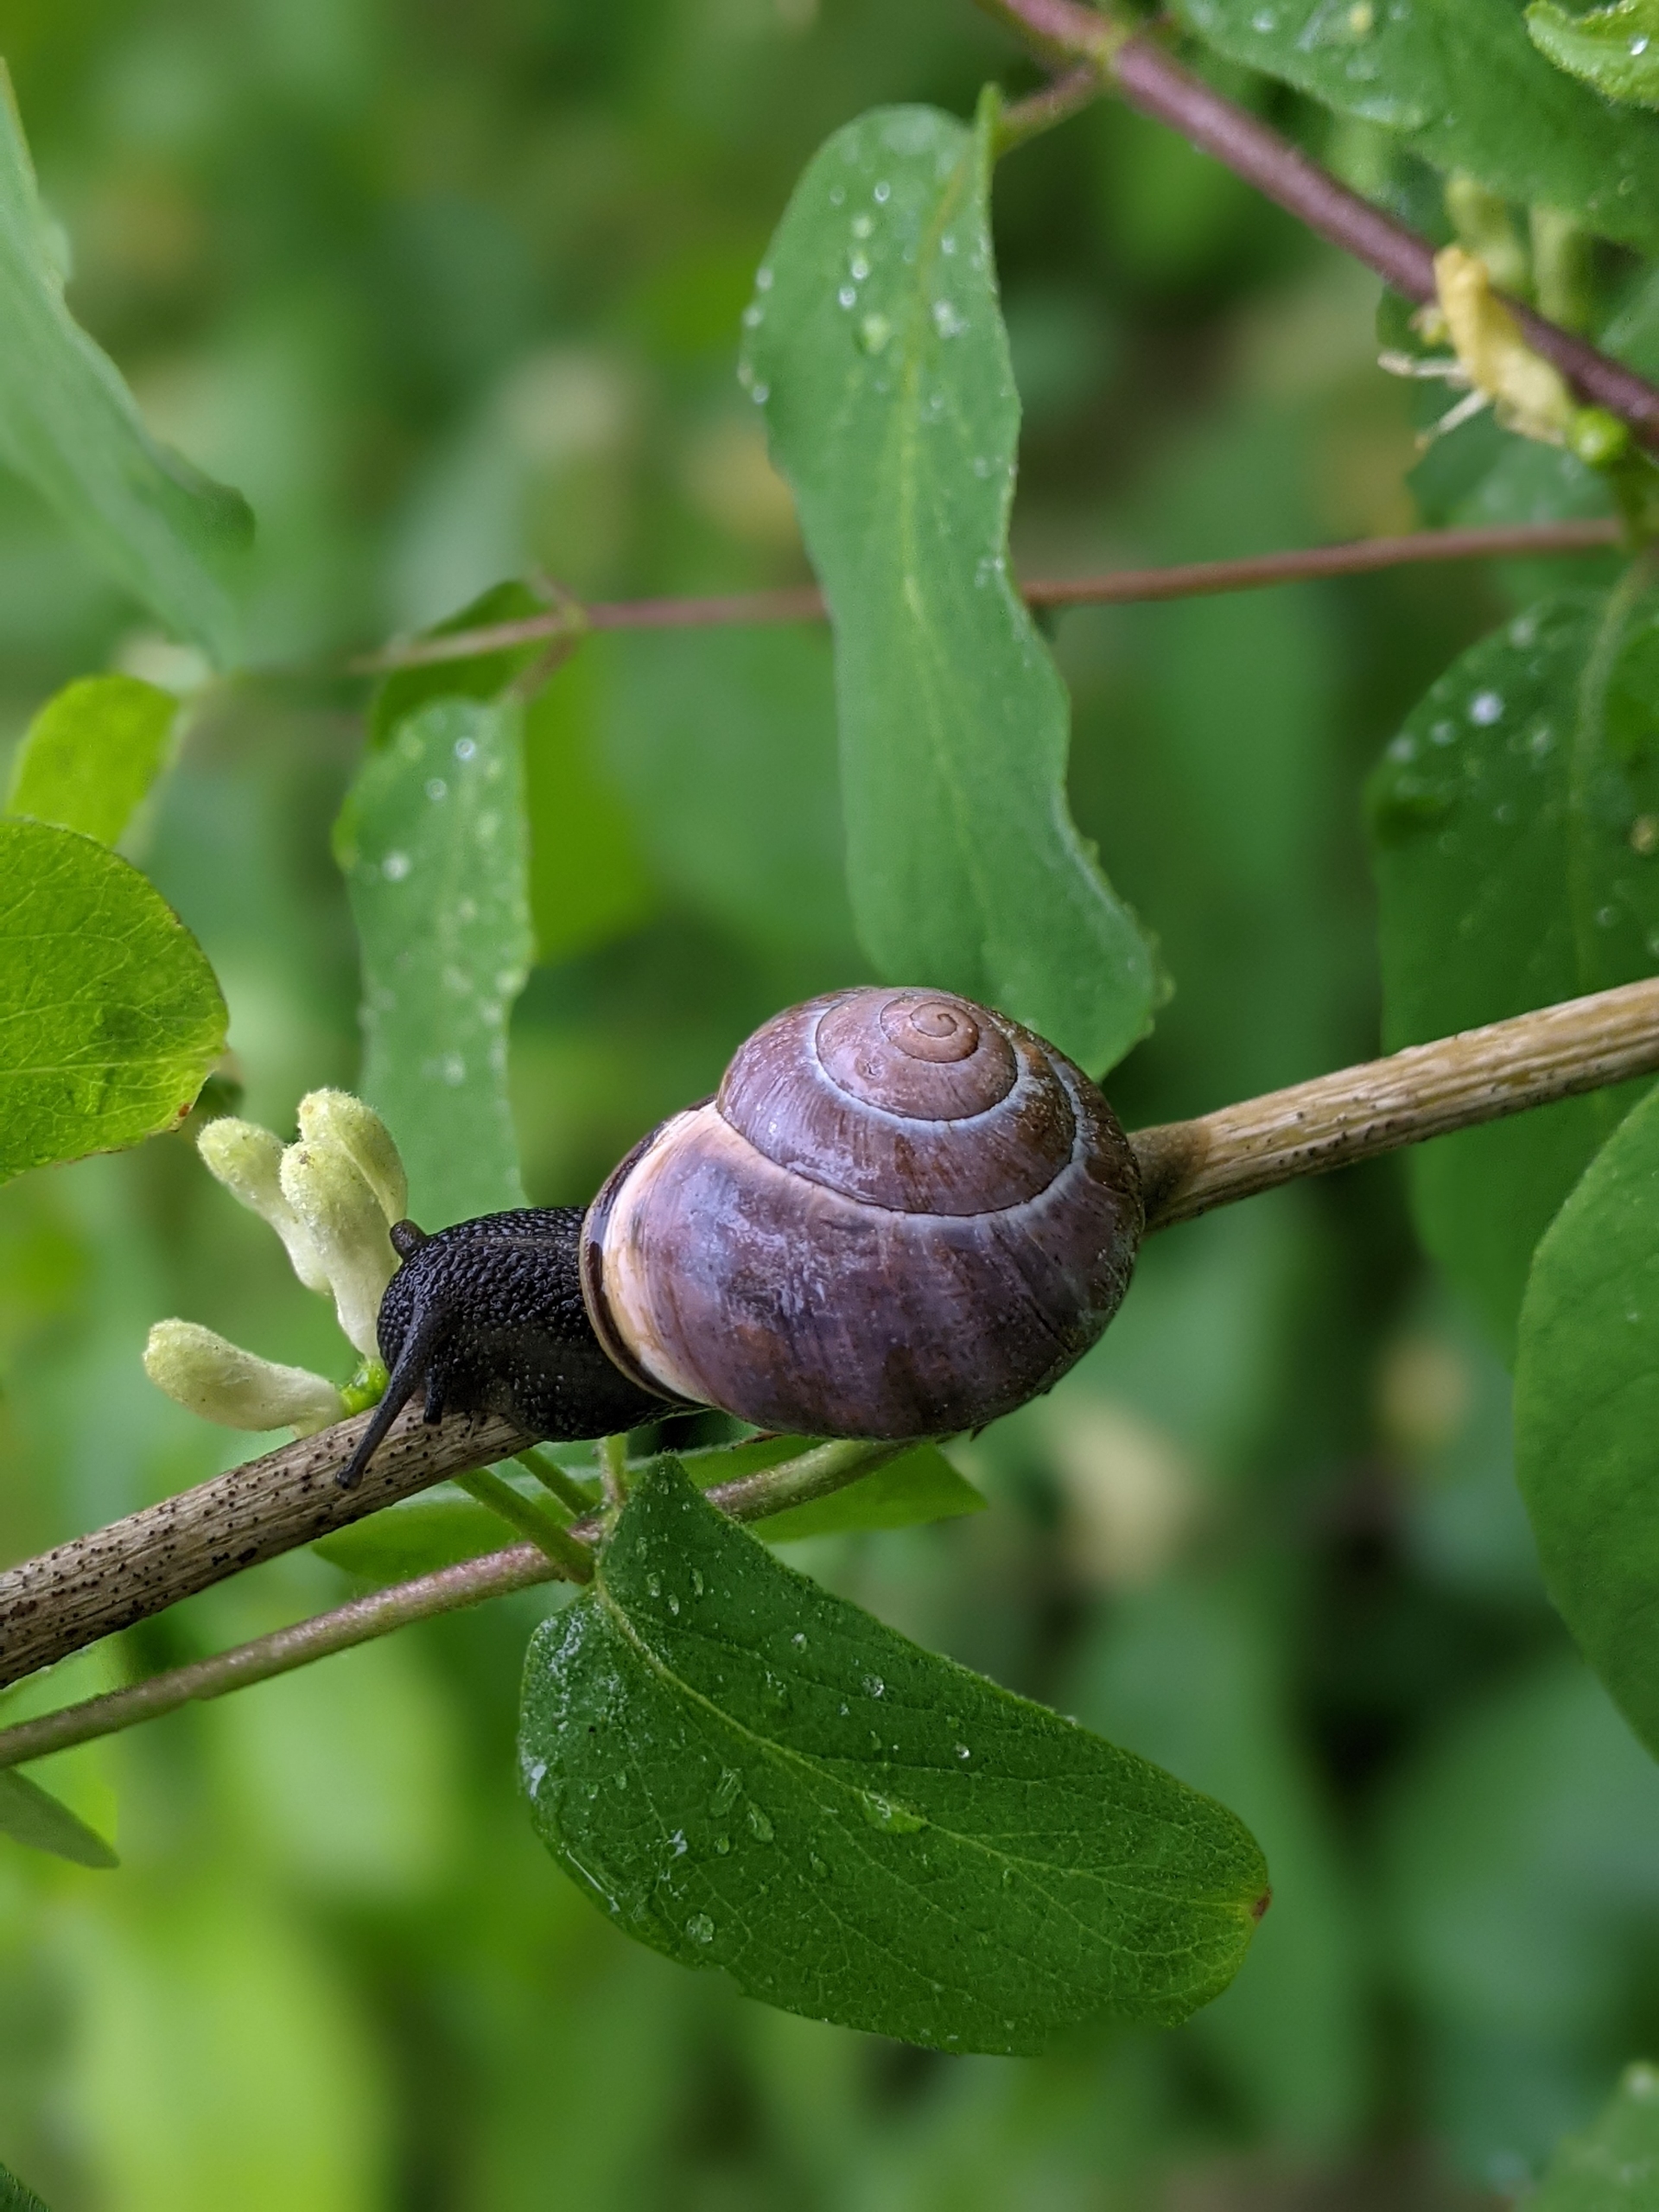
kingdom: Animalia
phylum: Mollusca
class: Gastropoda
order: Stylommatophora
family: Helicidae
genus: Cepaea
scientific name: Cepaea nemoralis
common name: Lundsnegl
